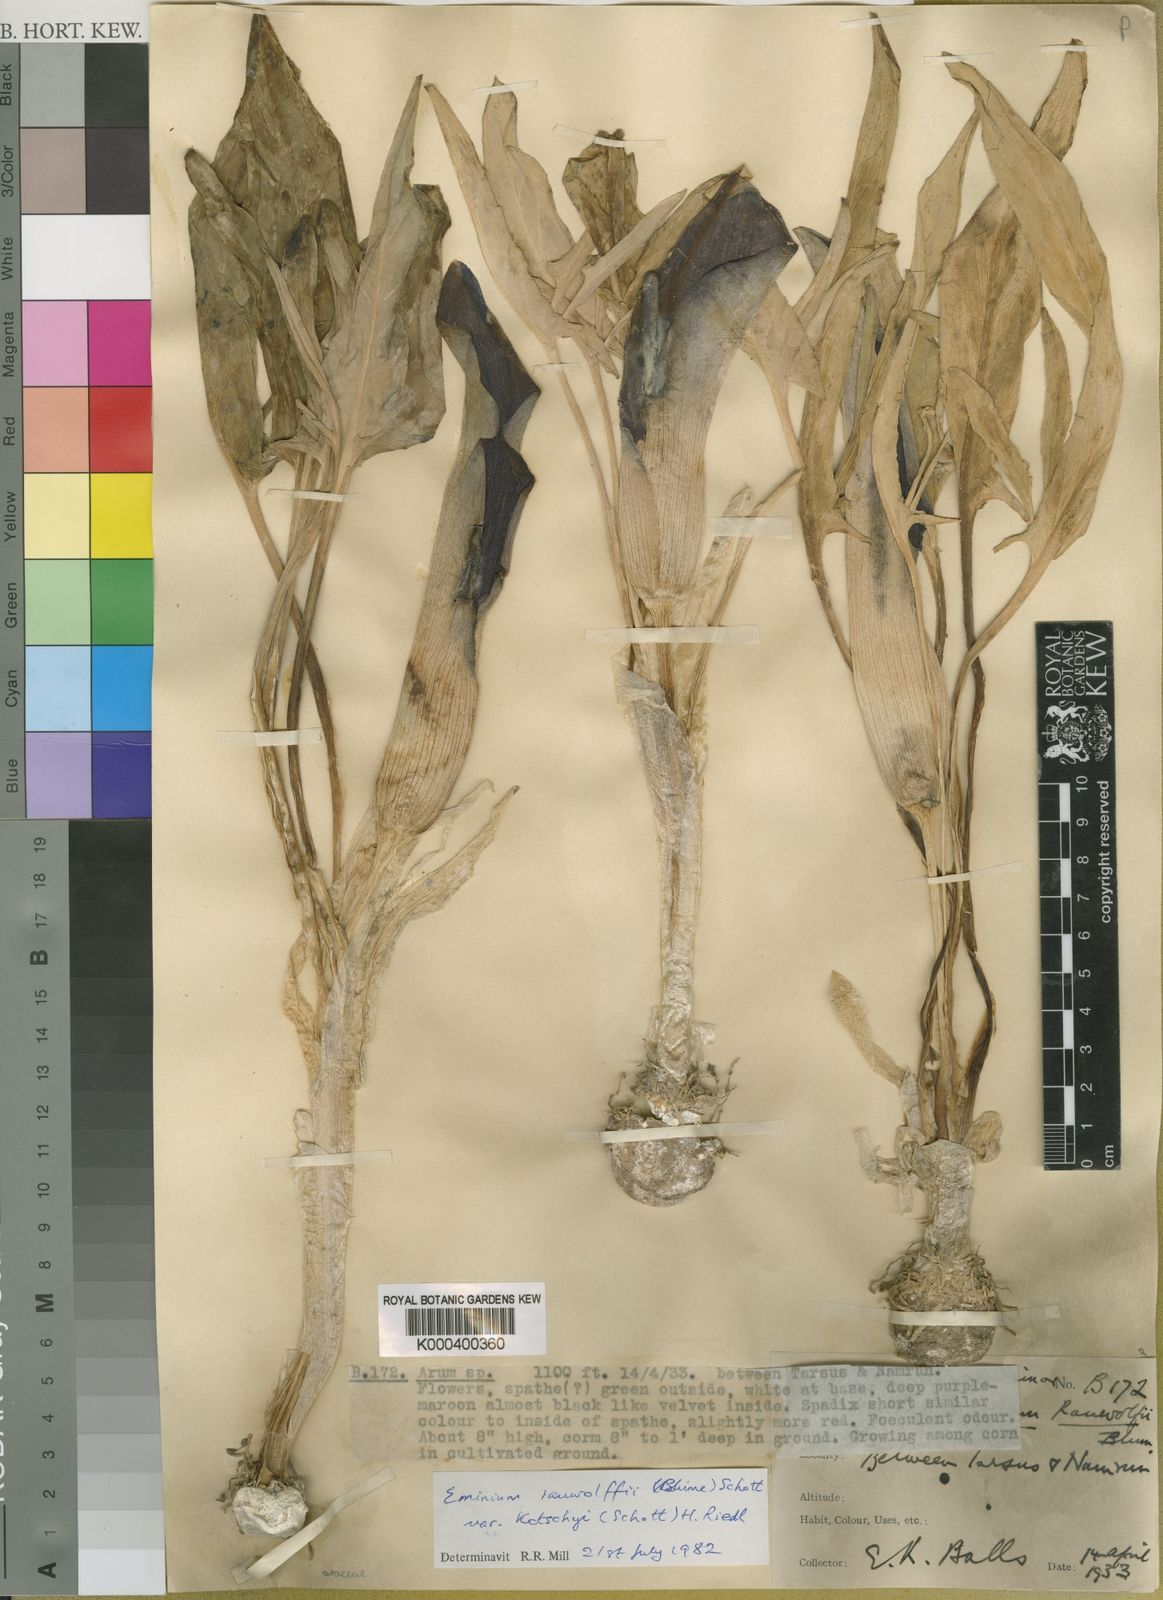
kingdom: Plantae
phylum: Tracheophyta
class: Liliopsida
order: Alismatales
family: Araceae
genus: Eminium
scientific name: Eminium rauwolffii
